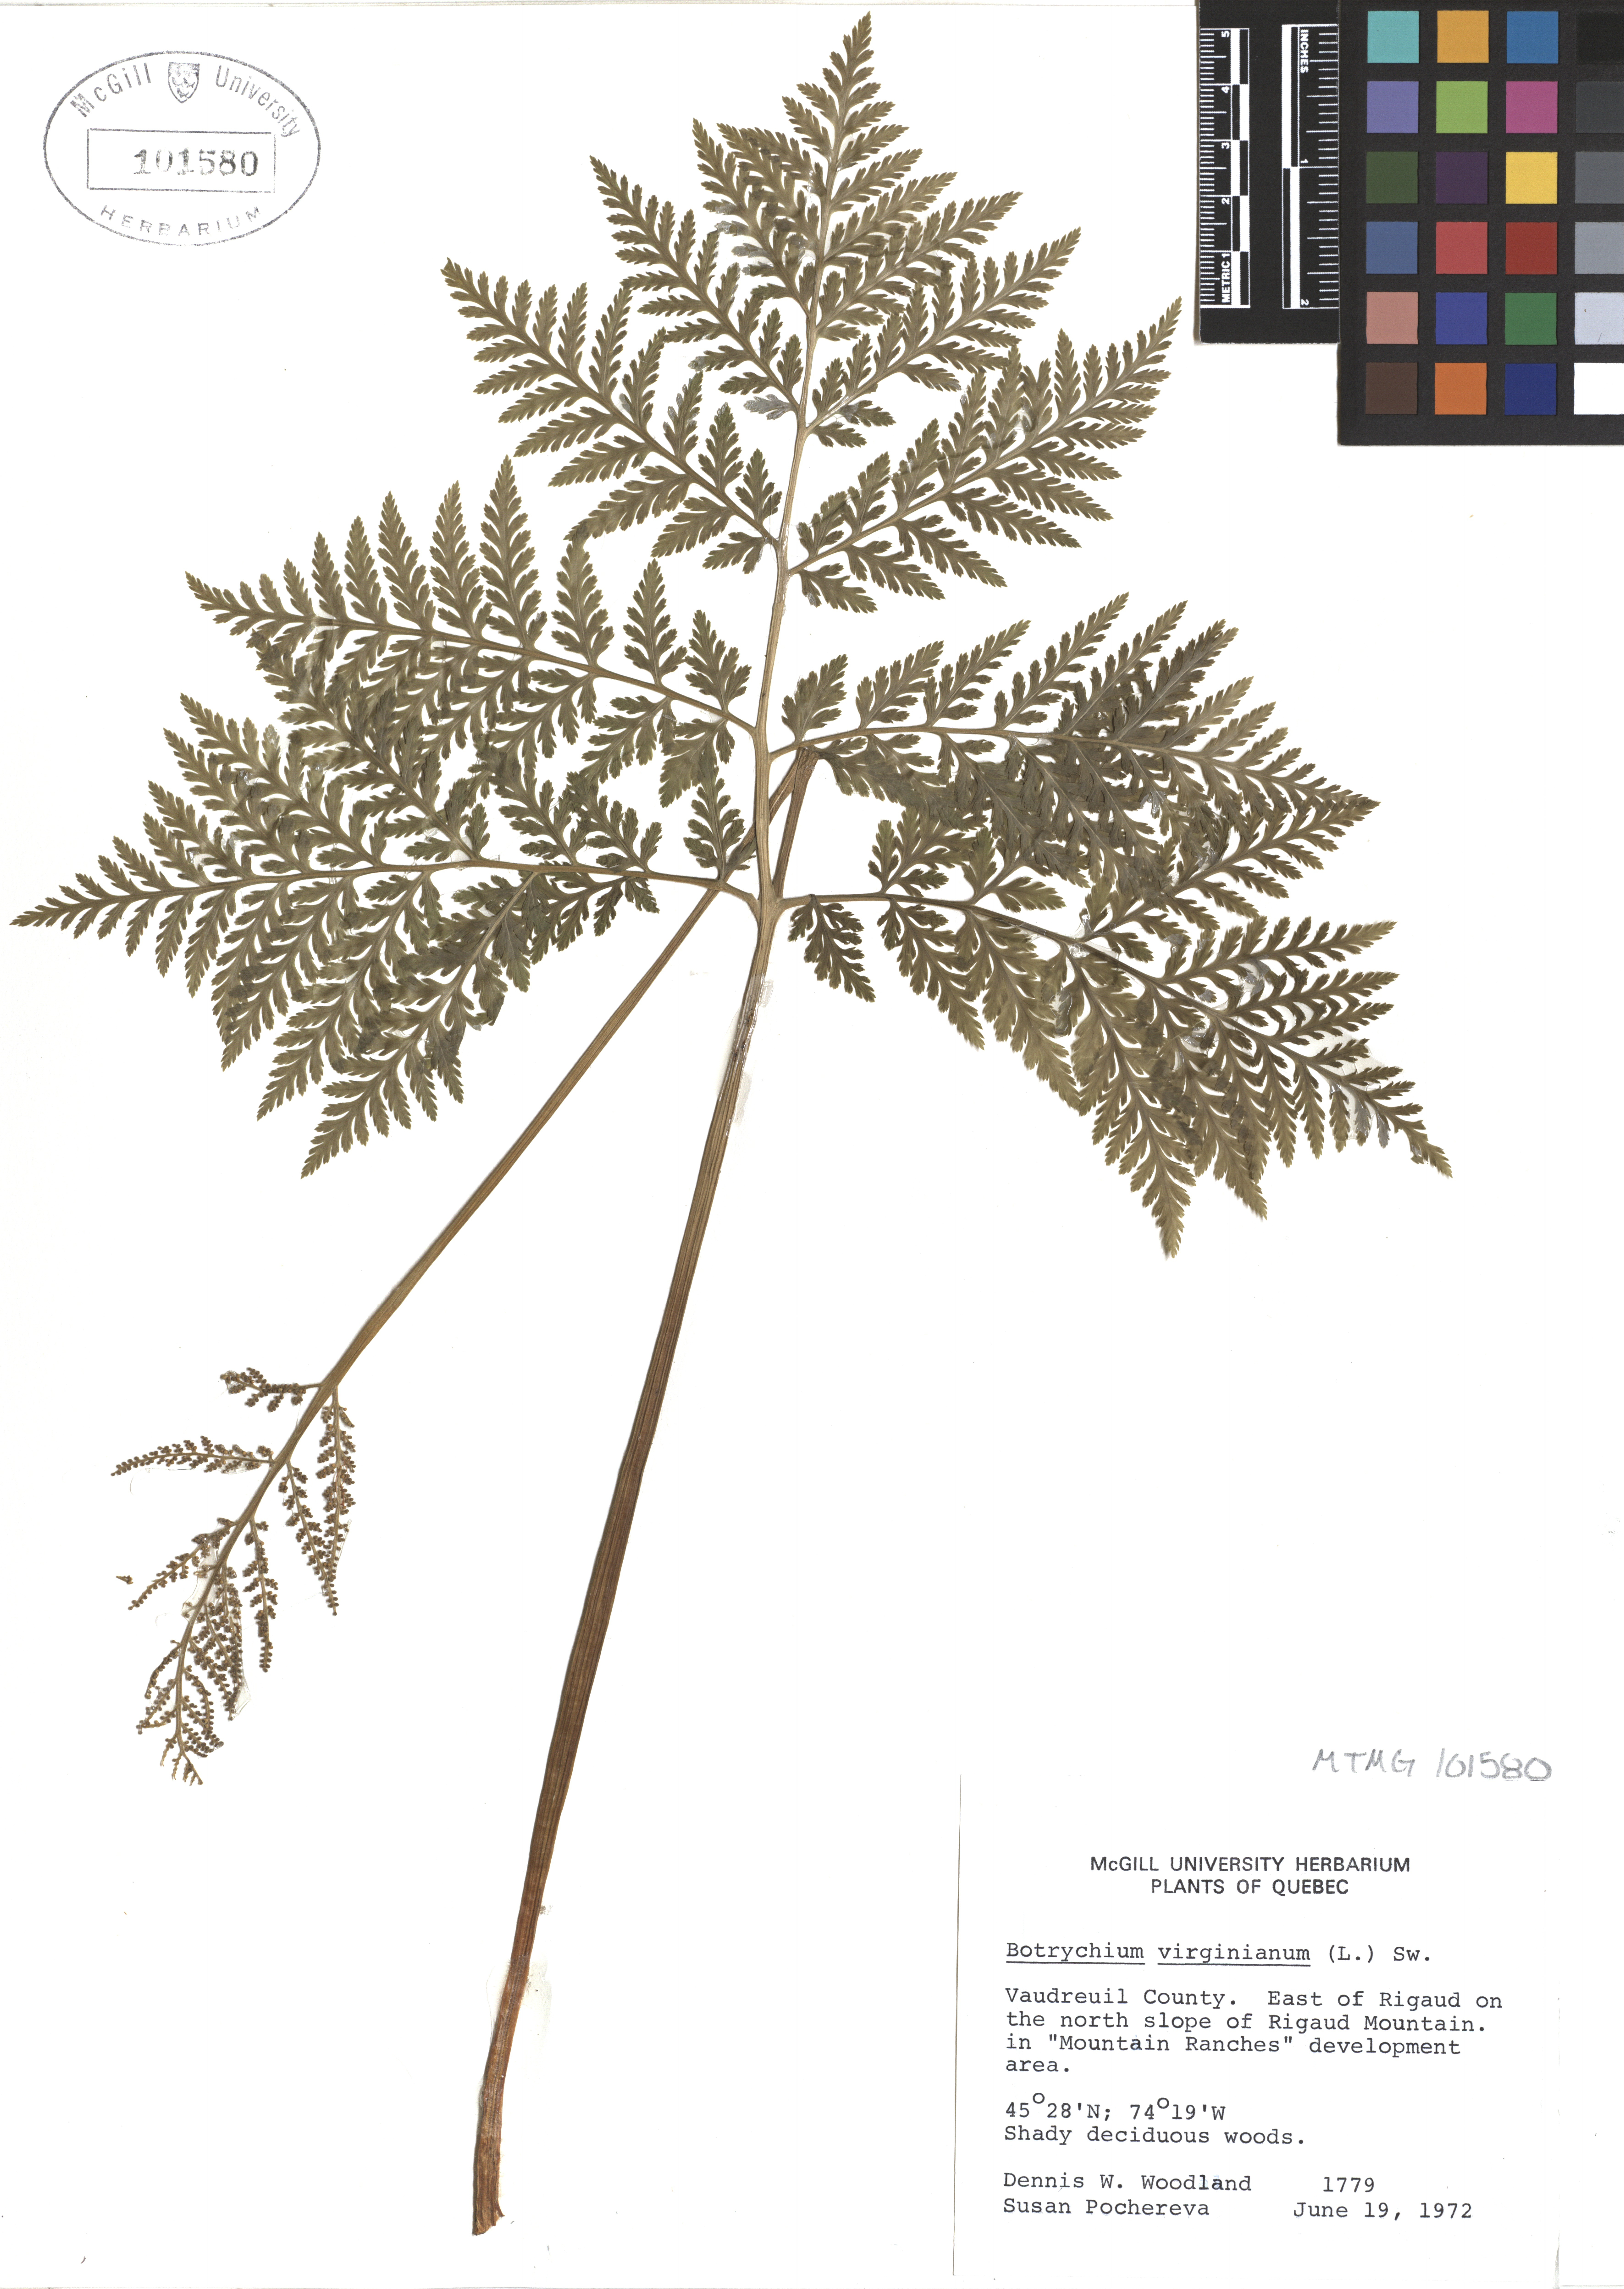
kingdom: Plantae
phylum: Tracheophyta
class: Polypodiopsida
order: Ophioglossales
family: Ophioglossaceae
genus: Botrypus
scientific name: Botrypus virginianus
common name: Common grapefern
